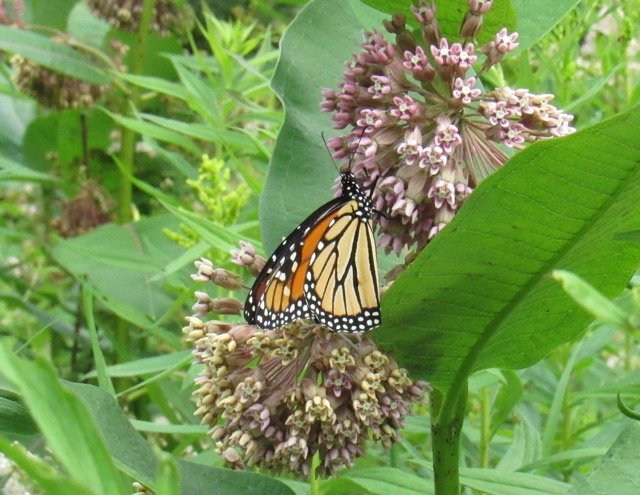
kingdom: Animalia
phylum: Arthropoda
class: Insecta
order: Lepidoptera
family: Nymphalidae
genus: Danaus
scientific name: Danaus plexippus
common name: Monarch
